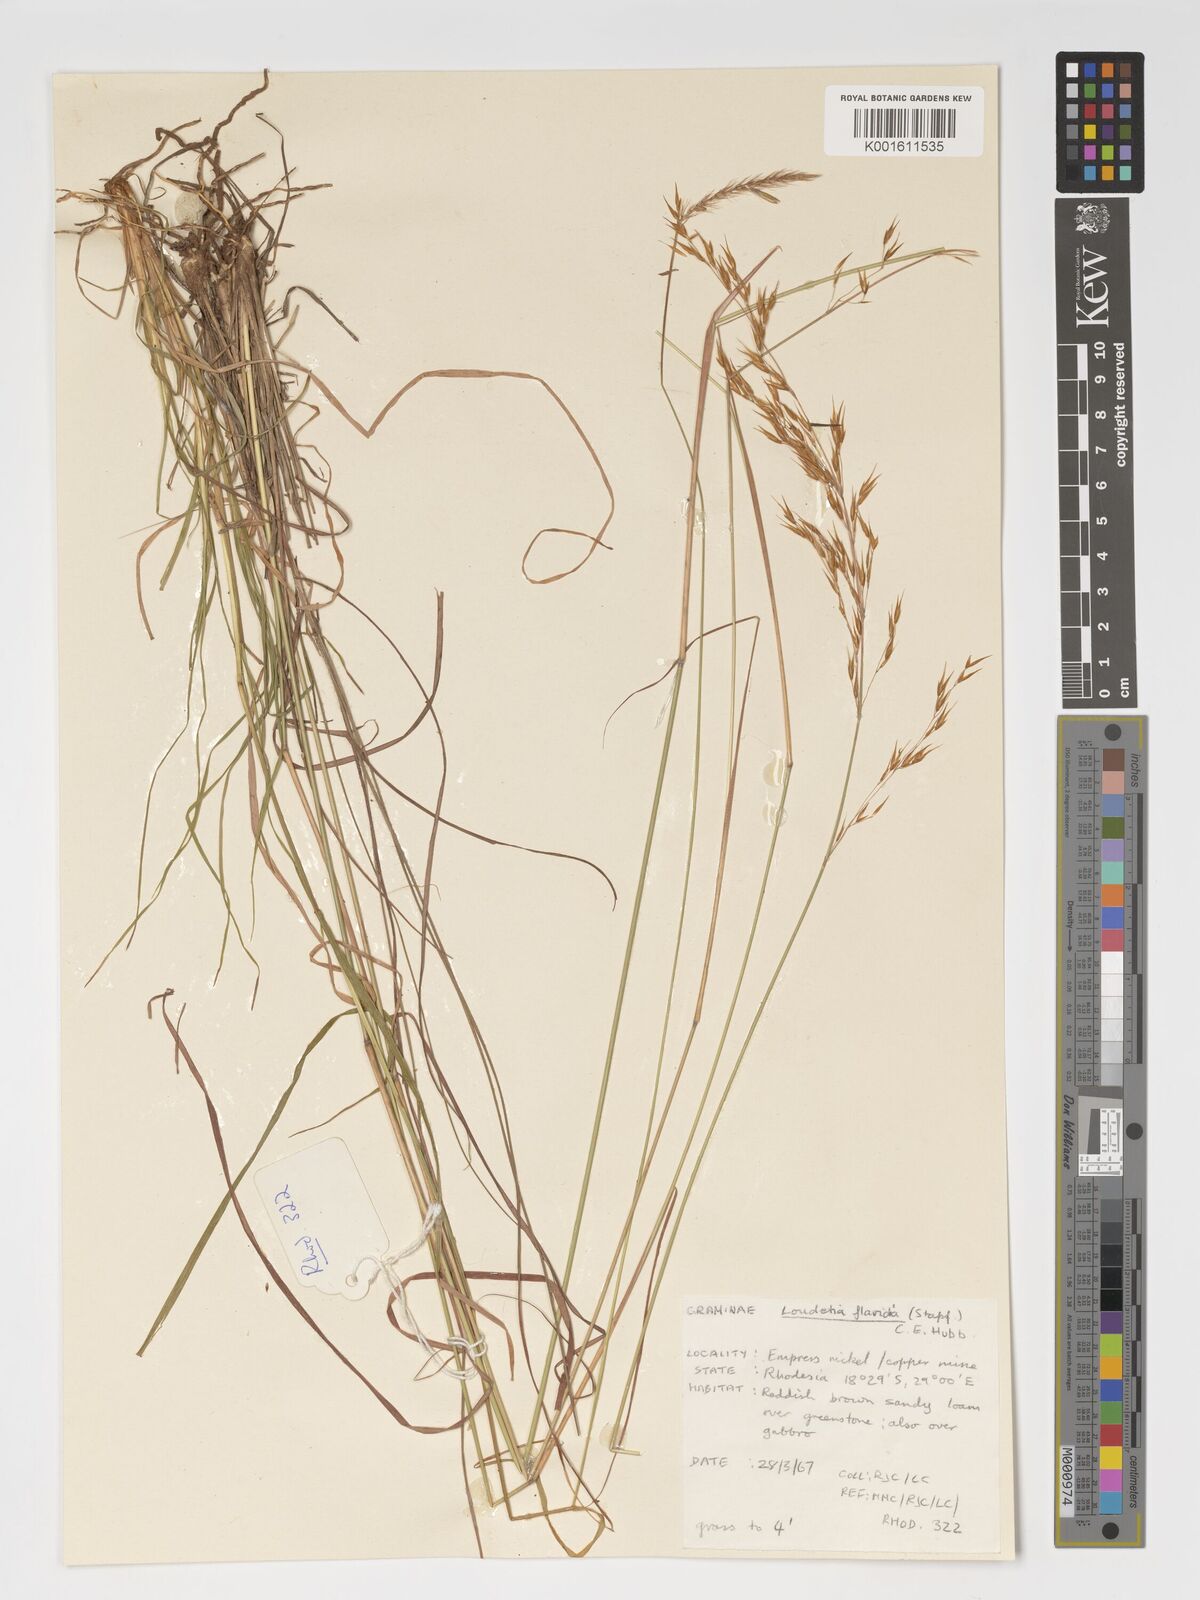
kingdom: Plantae
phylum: Tracheophyta
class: Liliopsida
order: Poales
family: Poaceae
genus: Loudetia
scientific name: Loudetia flavida
